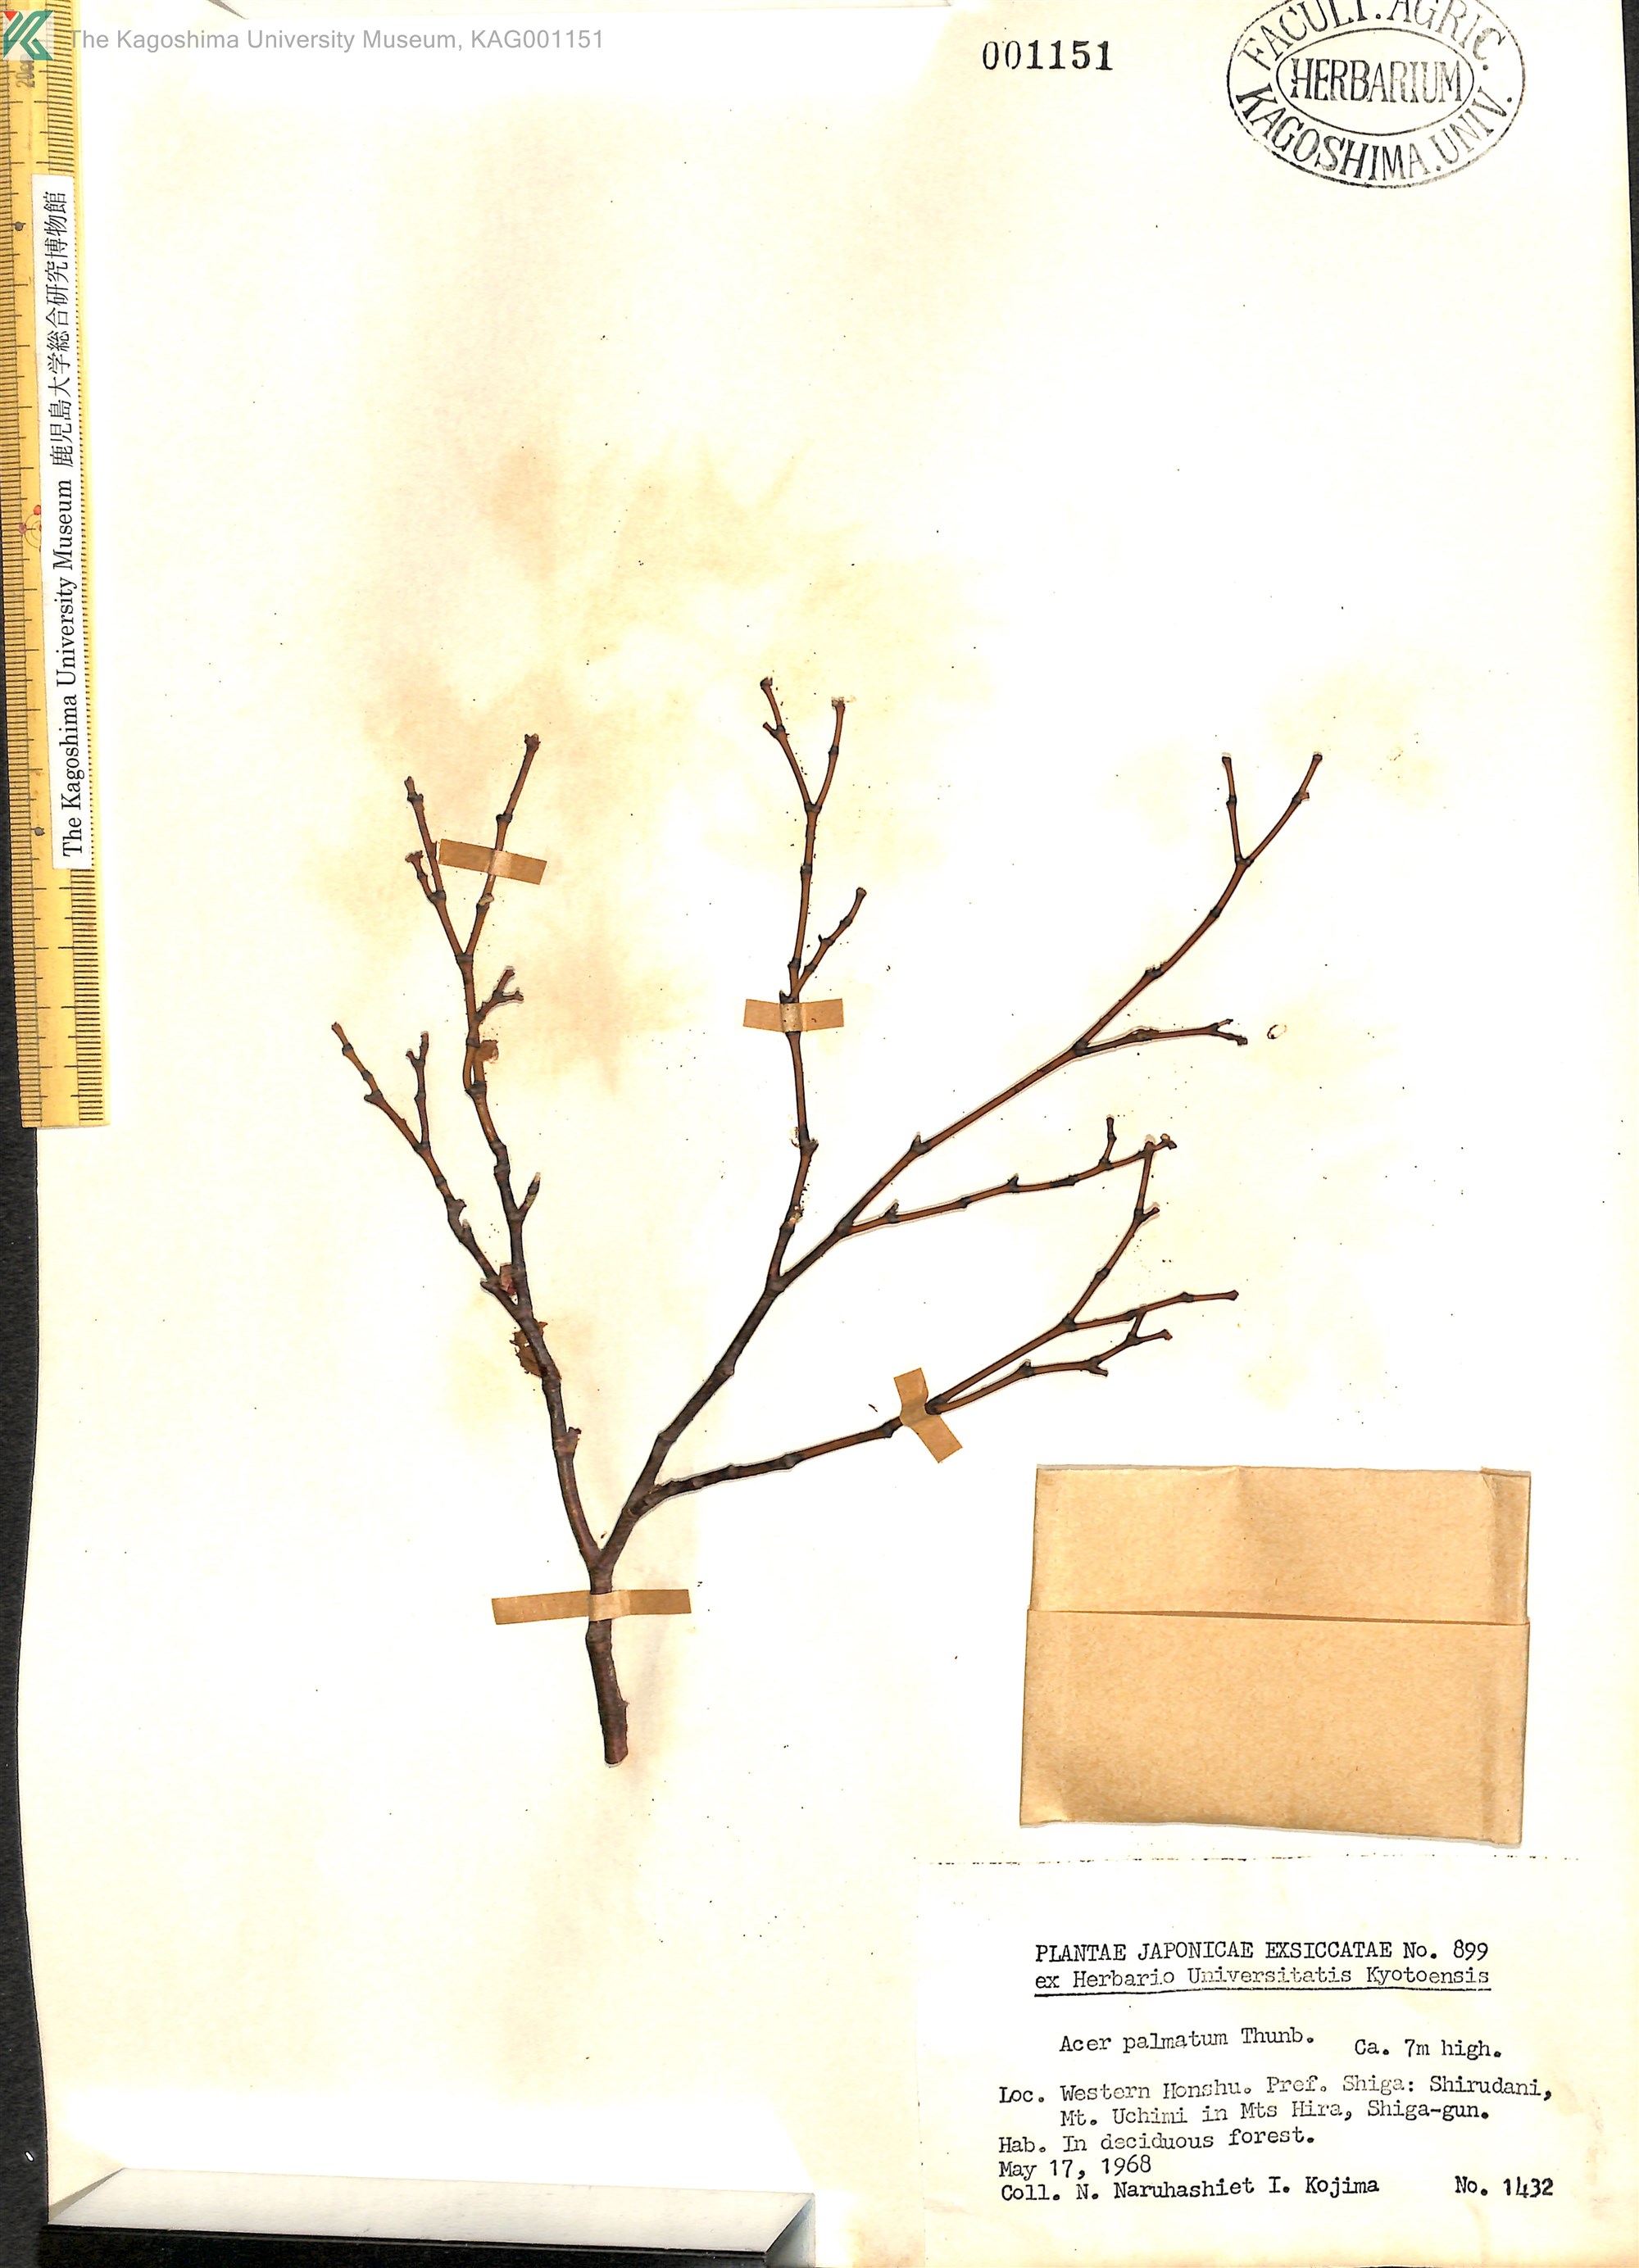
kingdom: Plantae
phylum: Tracheophyta
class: Magnoliopsida
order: Sapindales
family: Sapindaceae
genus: Acer
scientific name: Acer palmatum
